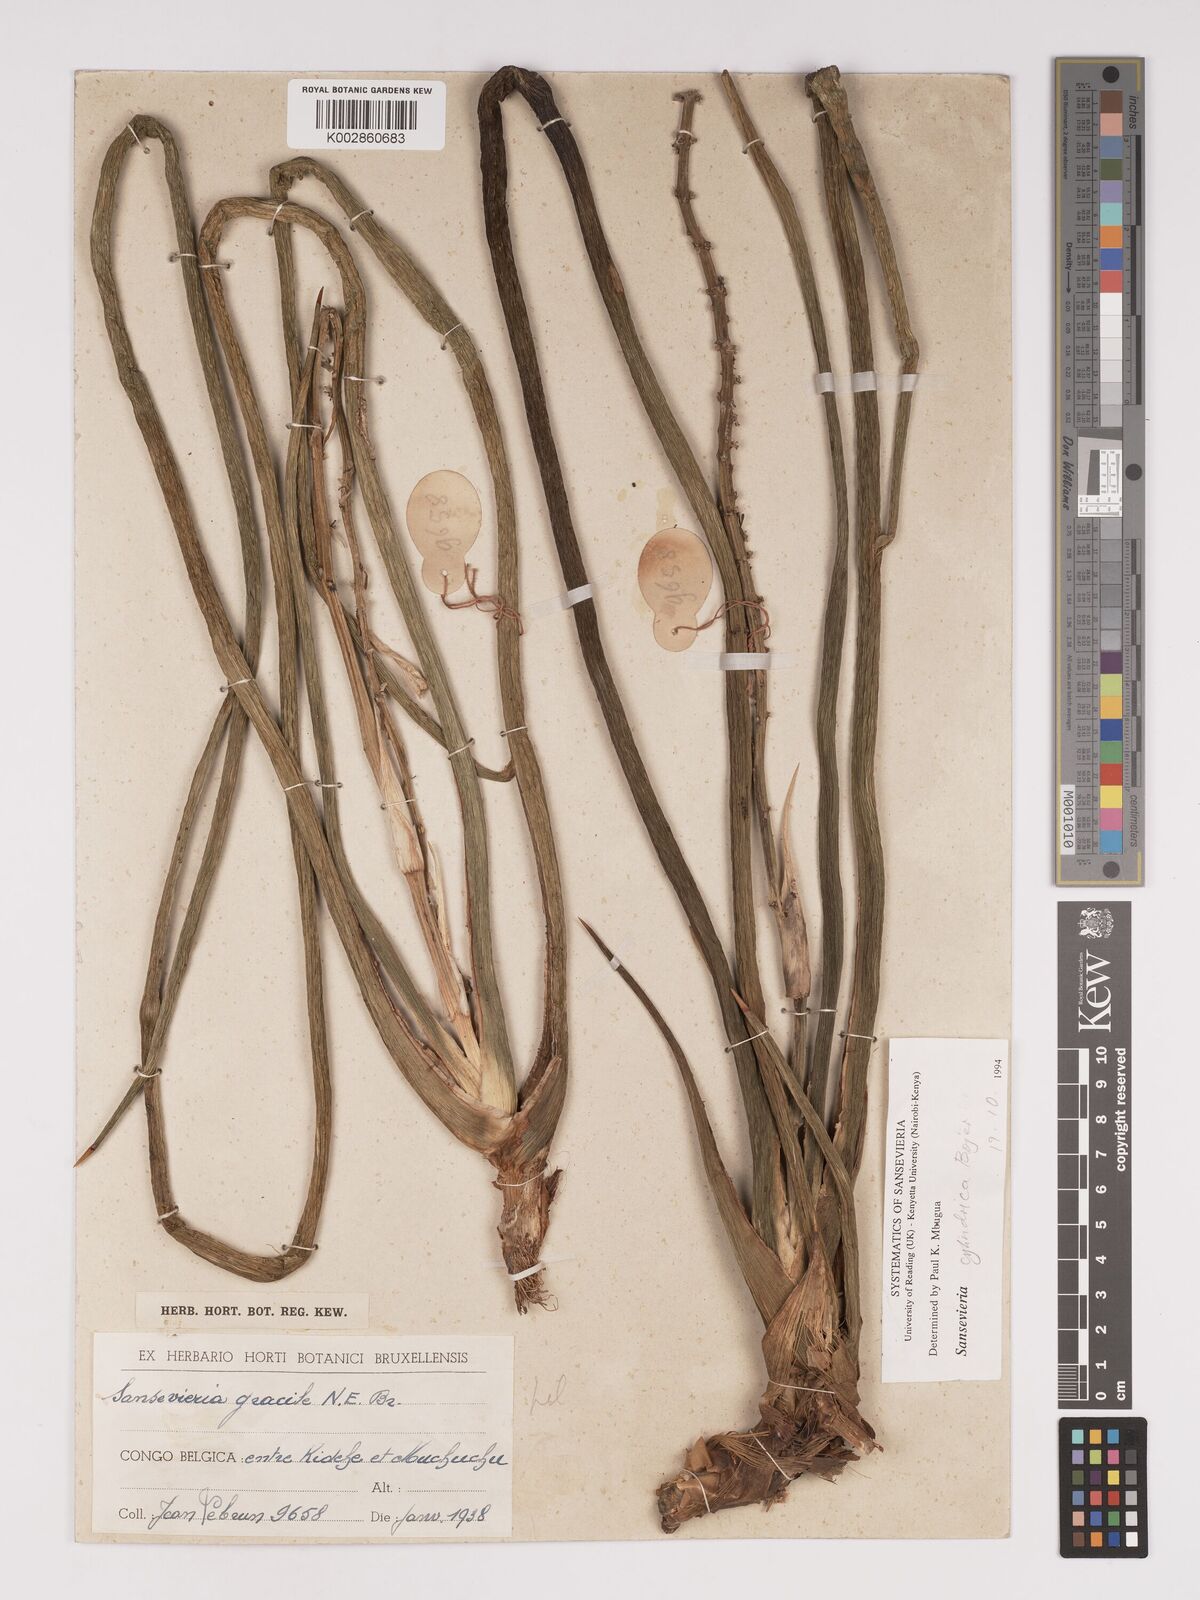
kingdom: Plantae
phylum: Tracheophyta
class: Liliopsida
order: Asparagales
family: Asparagaceae
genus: Dracaena
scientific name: Dracaena
